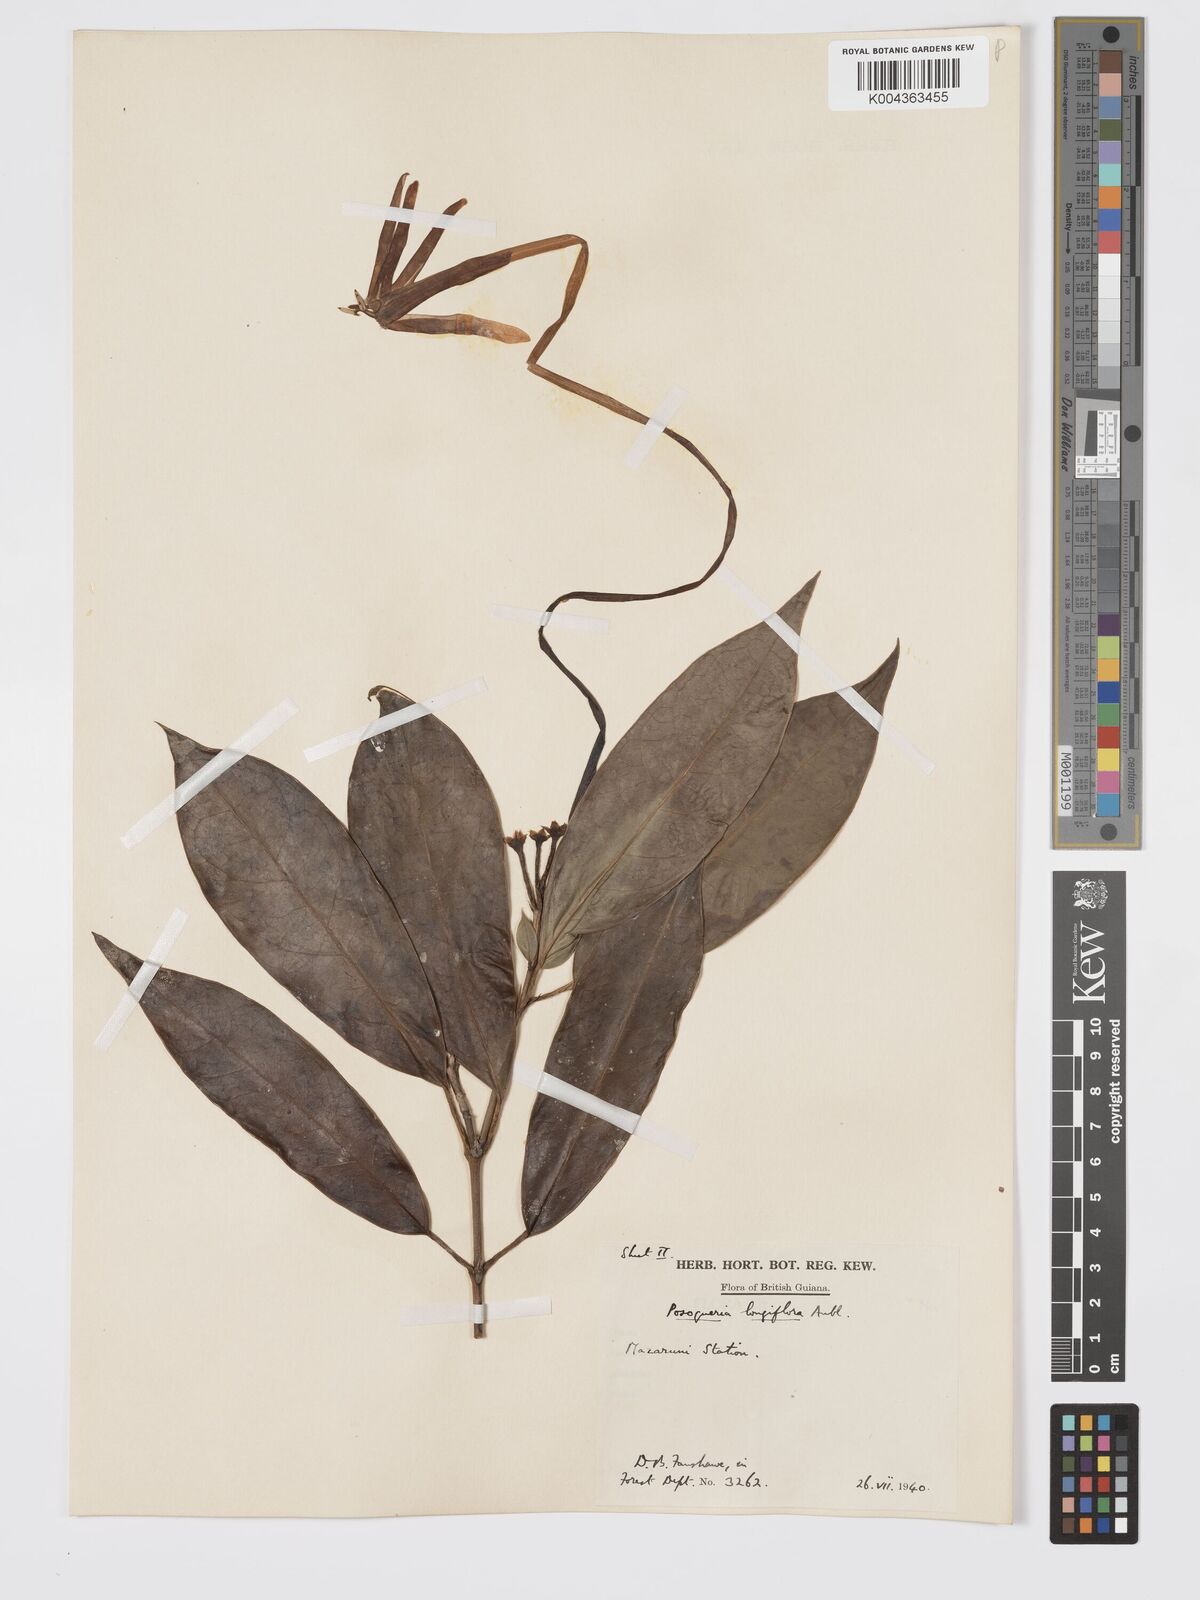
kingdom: Plantae
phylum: Tracheophyta
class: Magnoliopsida
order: Gentianales
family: Rubiaceae
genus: Posoqueria
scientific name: Posoqueria
